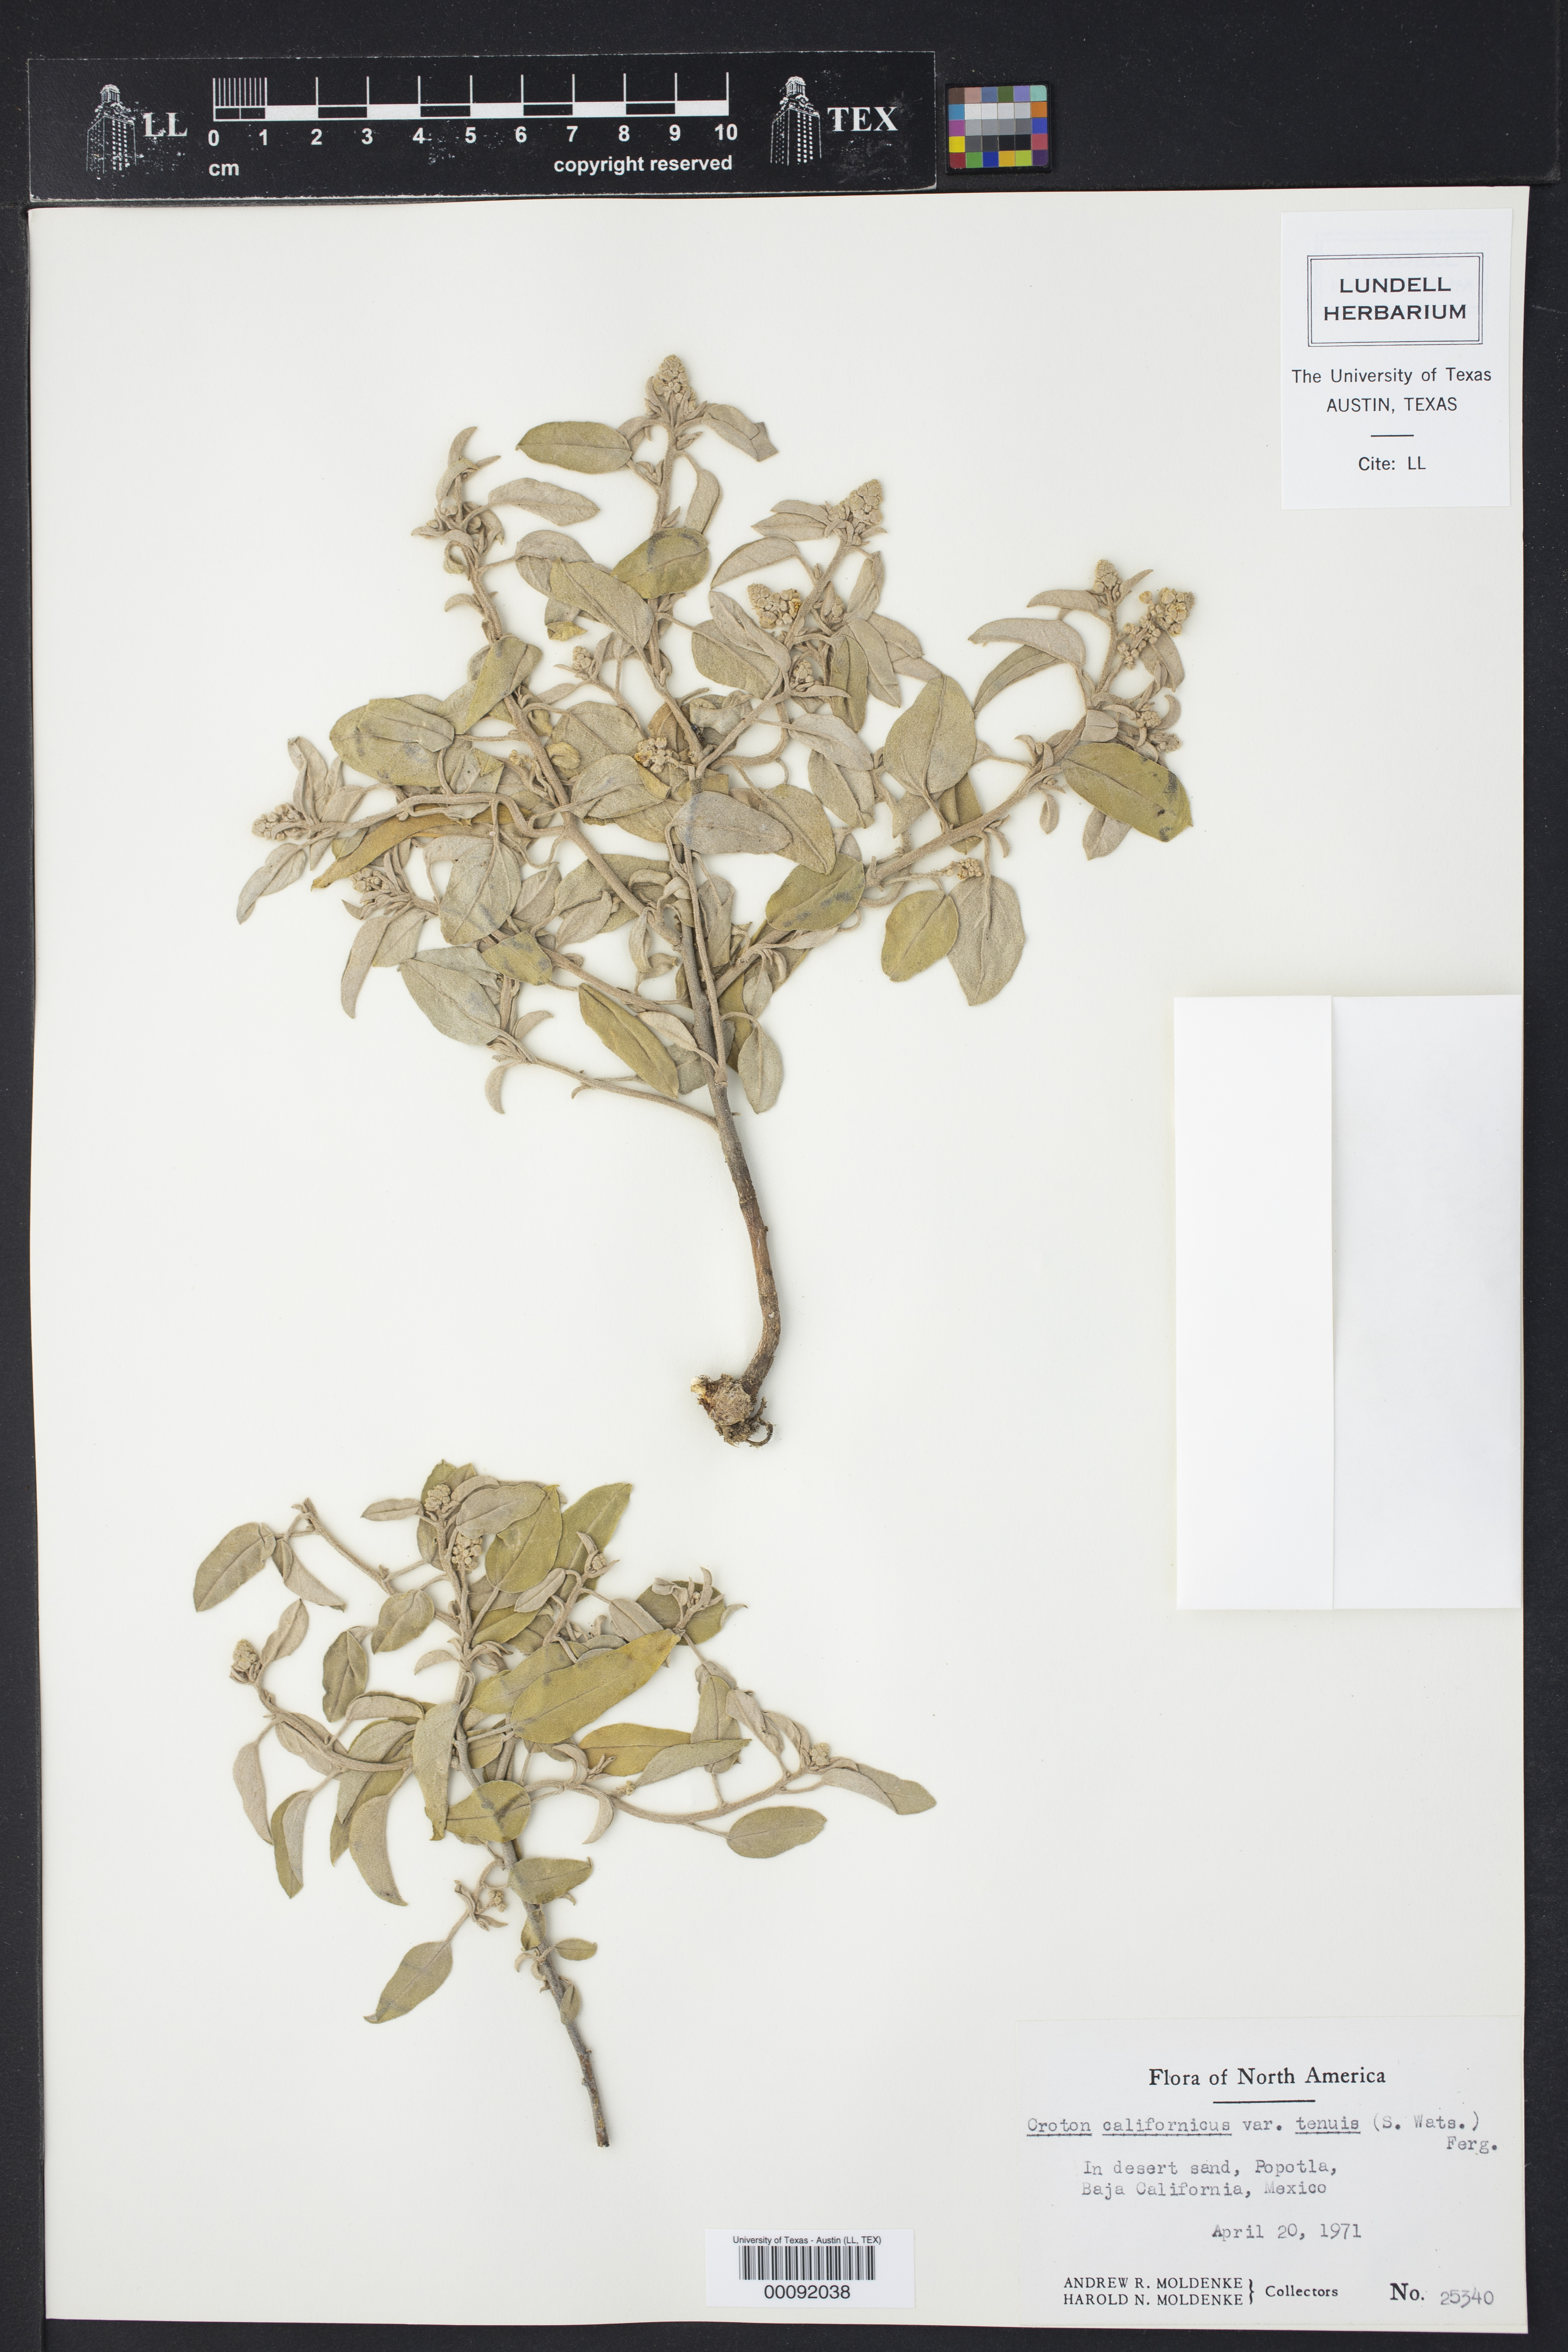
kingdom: Plantae
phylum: Tracheophyta
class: Magnoliopsida
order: Malpighiales
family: Euphorbiaceae
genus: Croton
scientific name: Croton californicus
